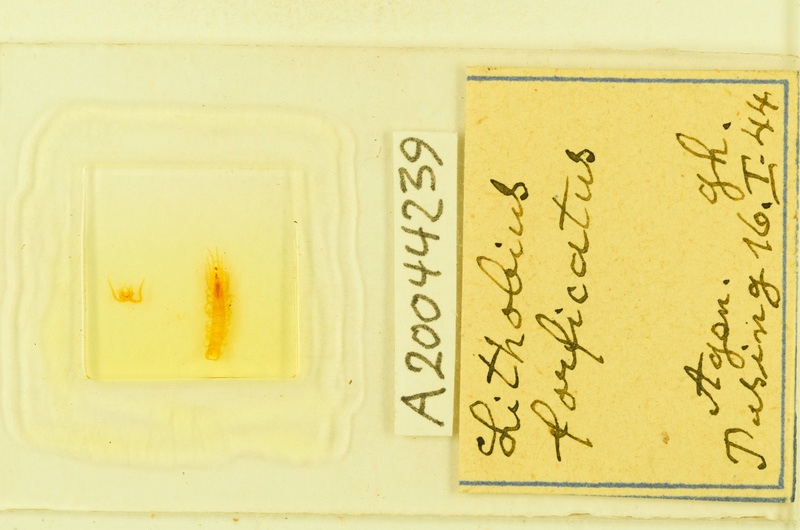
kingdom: Animalia
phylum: Arthropoda
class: Chilopoda
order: Lithobiomorpha
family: Lithobiidae
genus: Lithobius
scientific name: Lithobius forficatus
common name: Centipede
